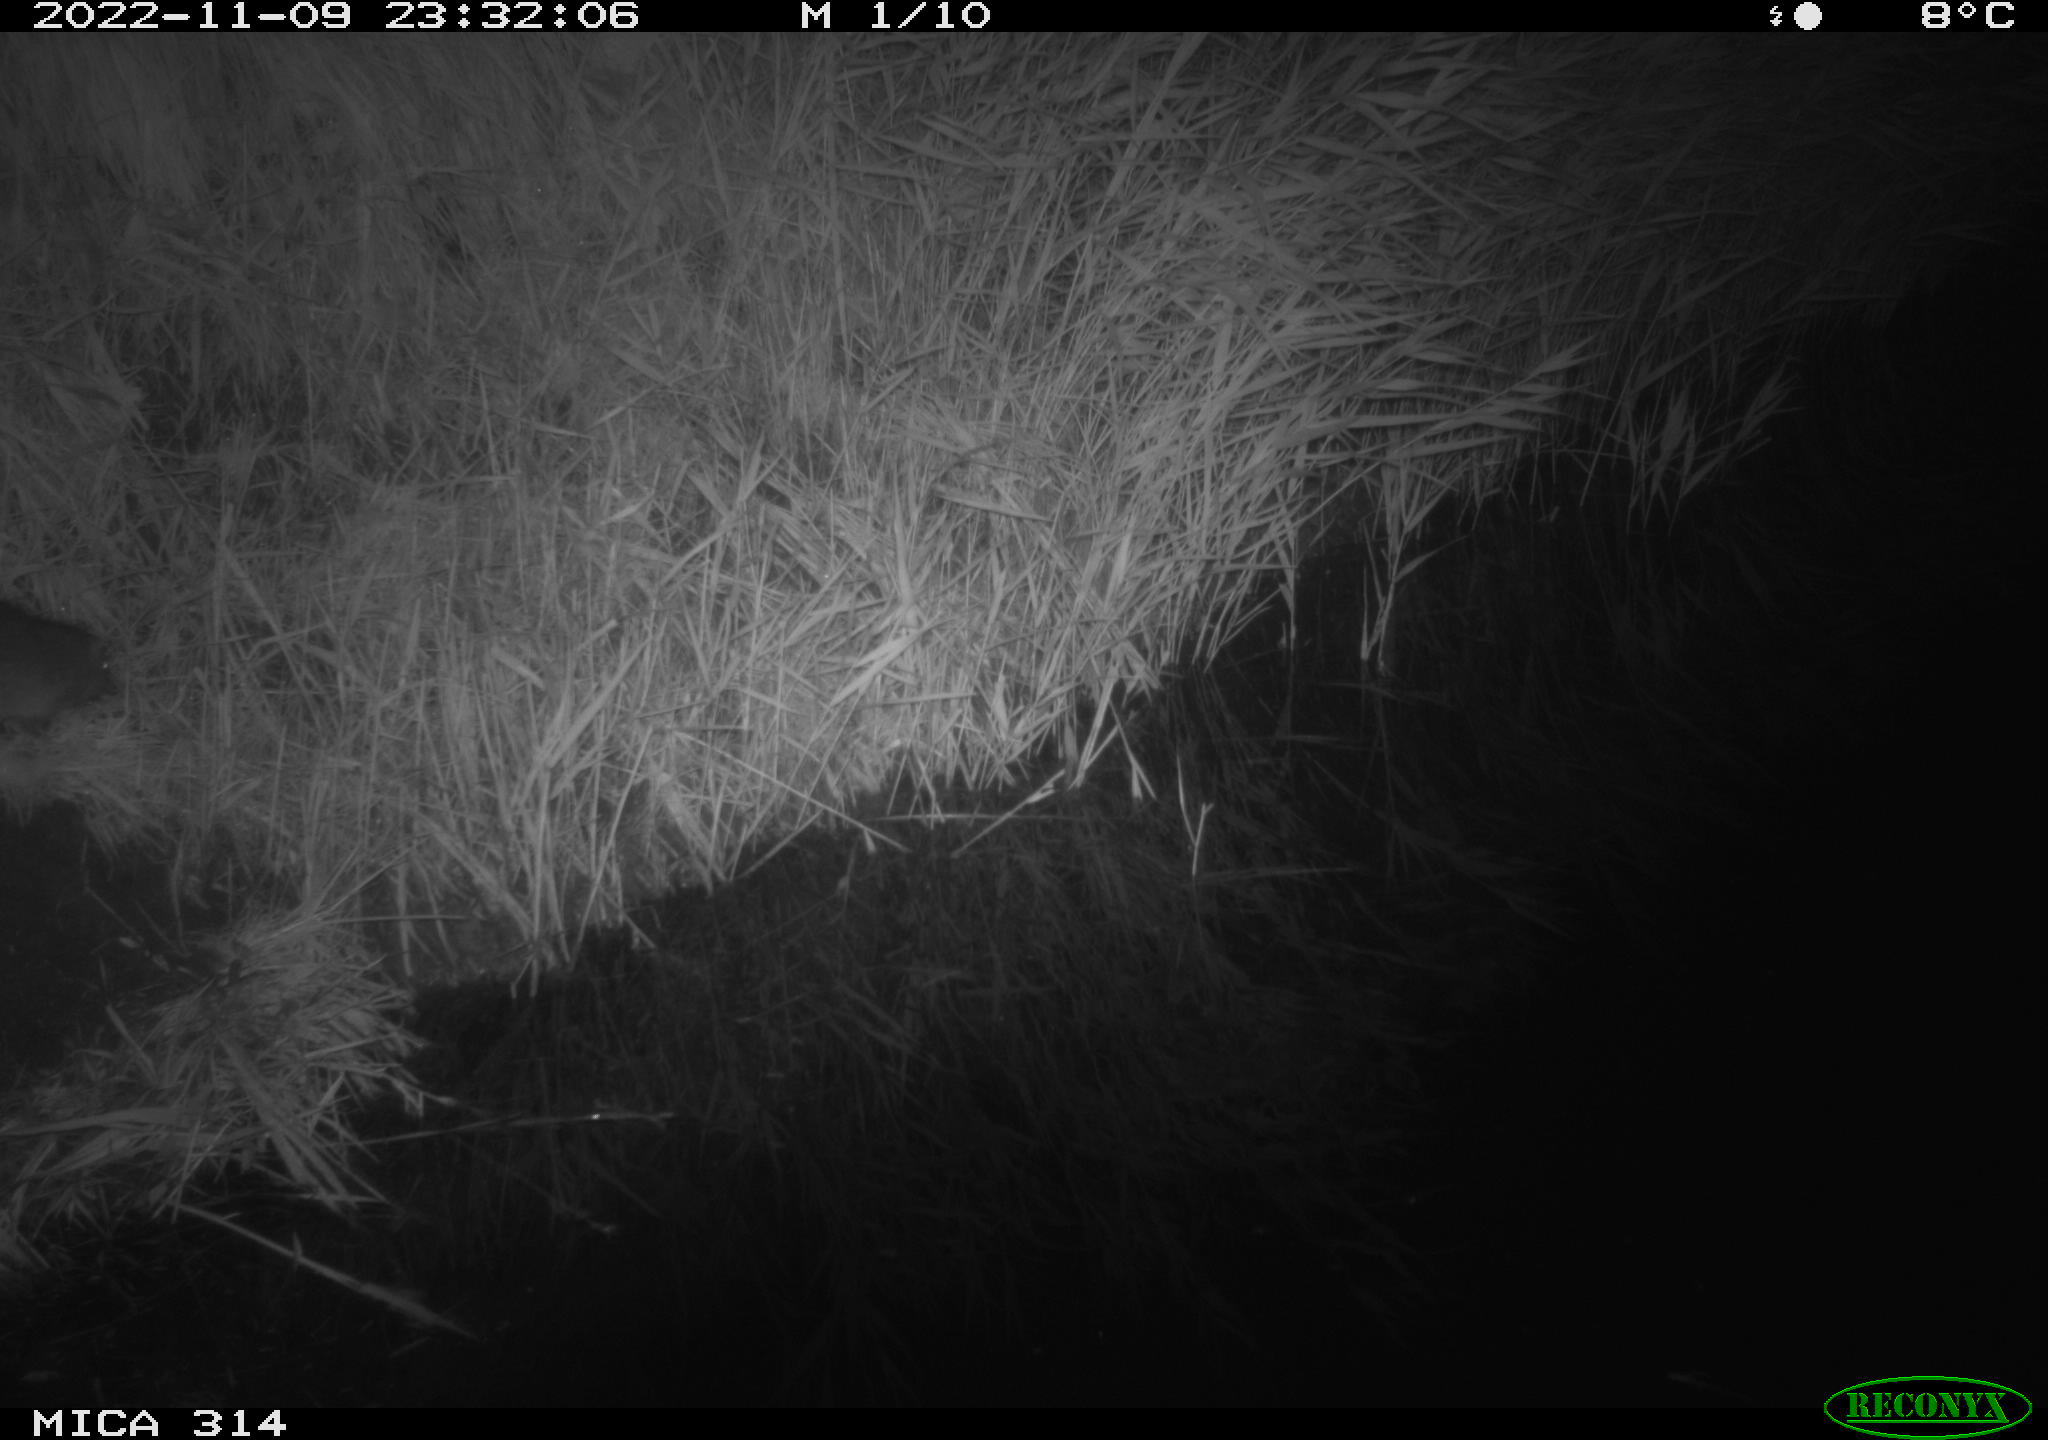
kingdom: Animalia
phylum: Chordata
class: Mammalia
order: Rodentia
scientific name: Rodentia
